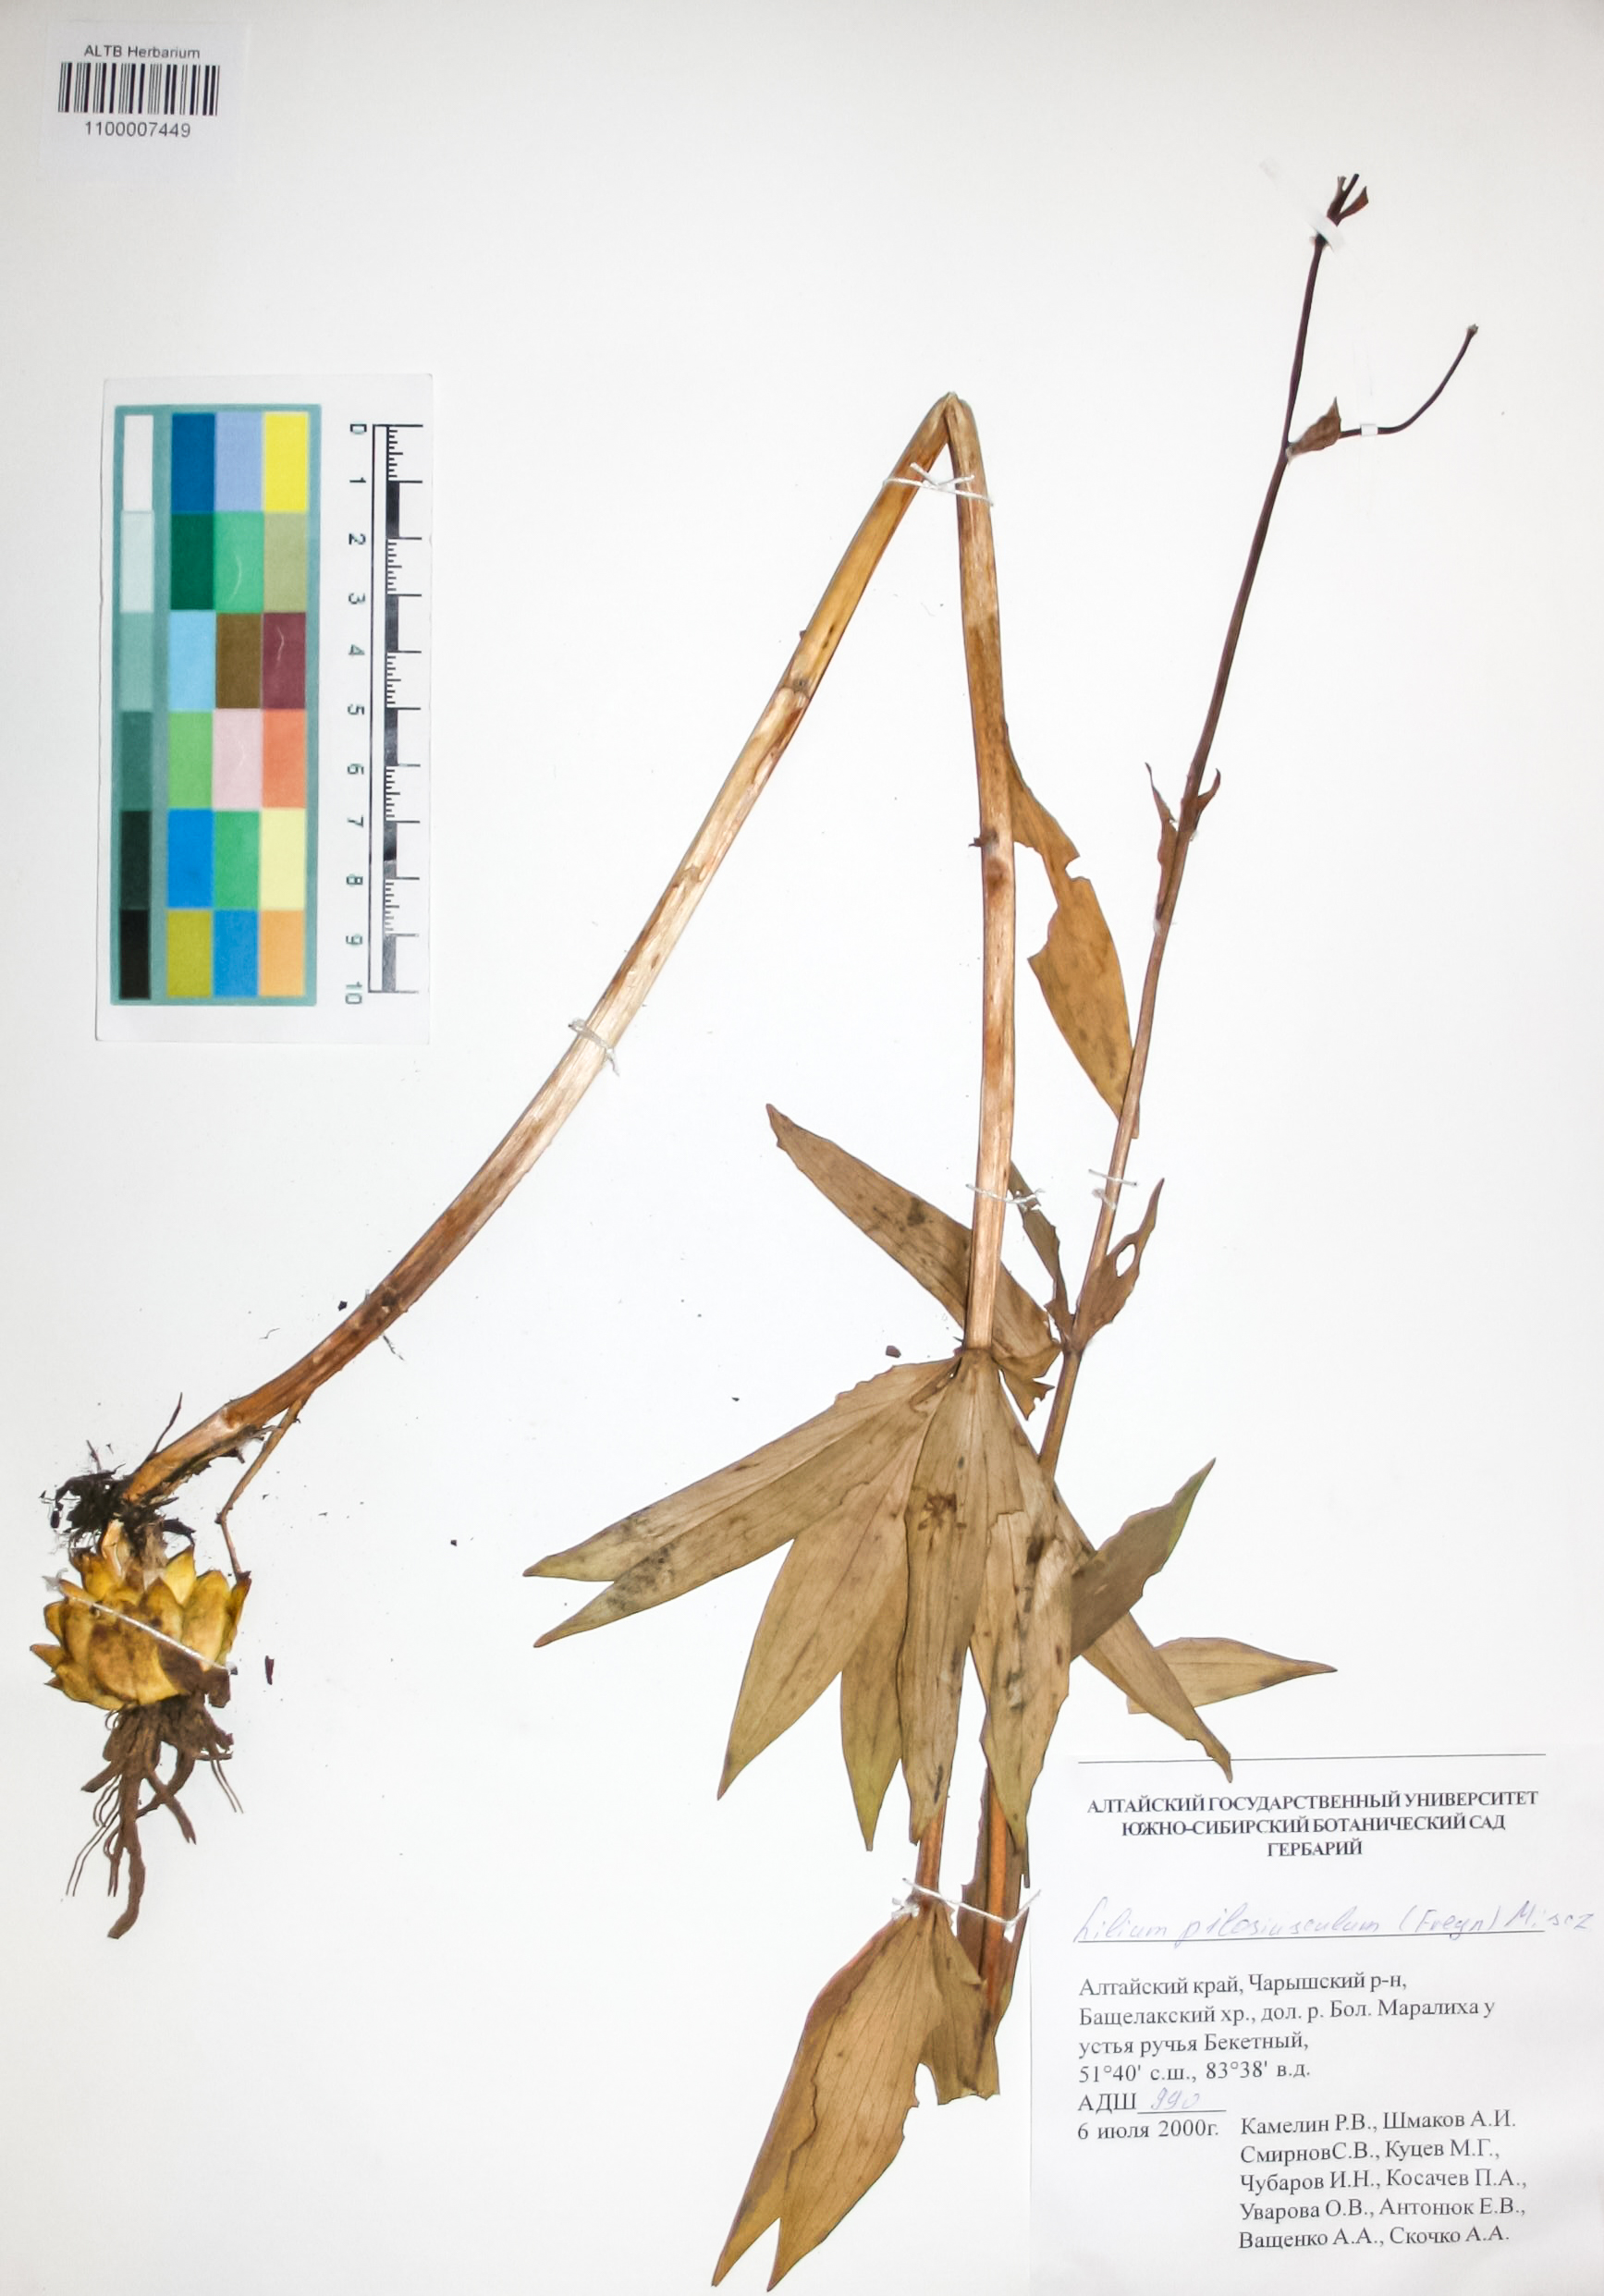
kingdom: Plantae
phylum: Tracheophyta
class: Liliopsida
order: Liliales
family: Liliaceae
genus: Lilium
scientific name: Lilium martagon
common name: Martagon lily
